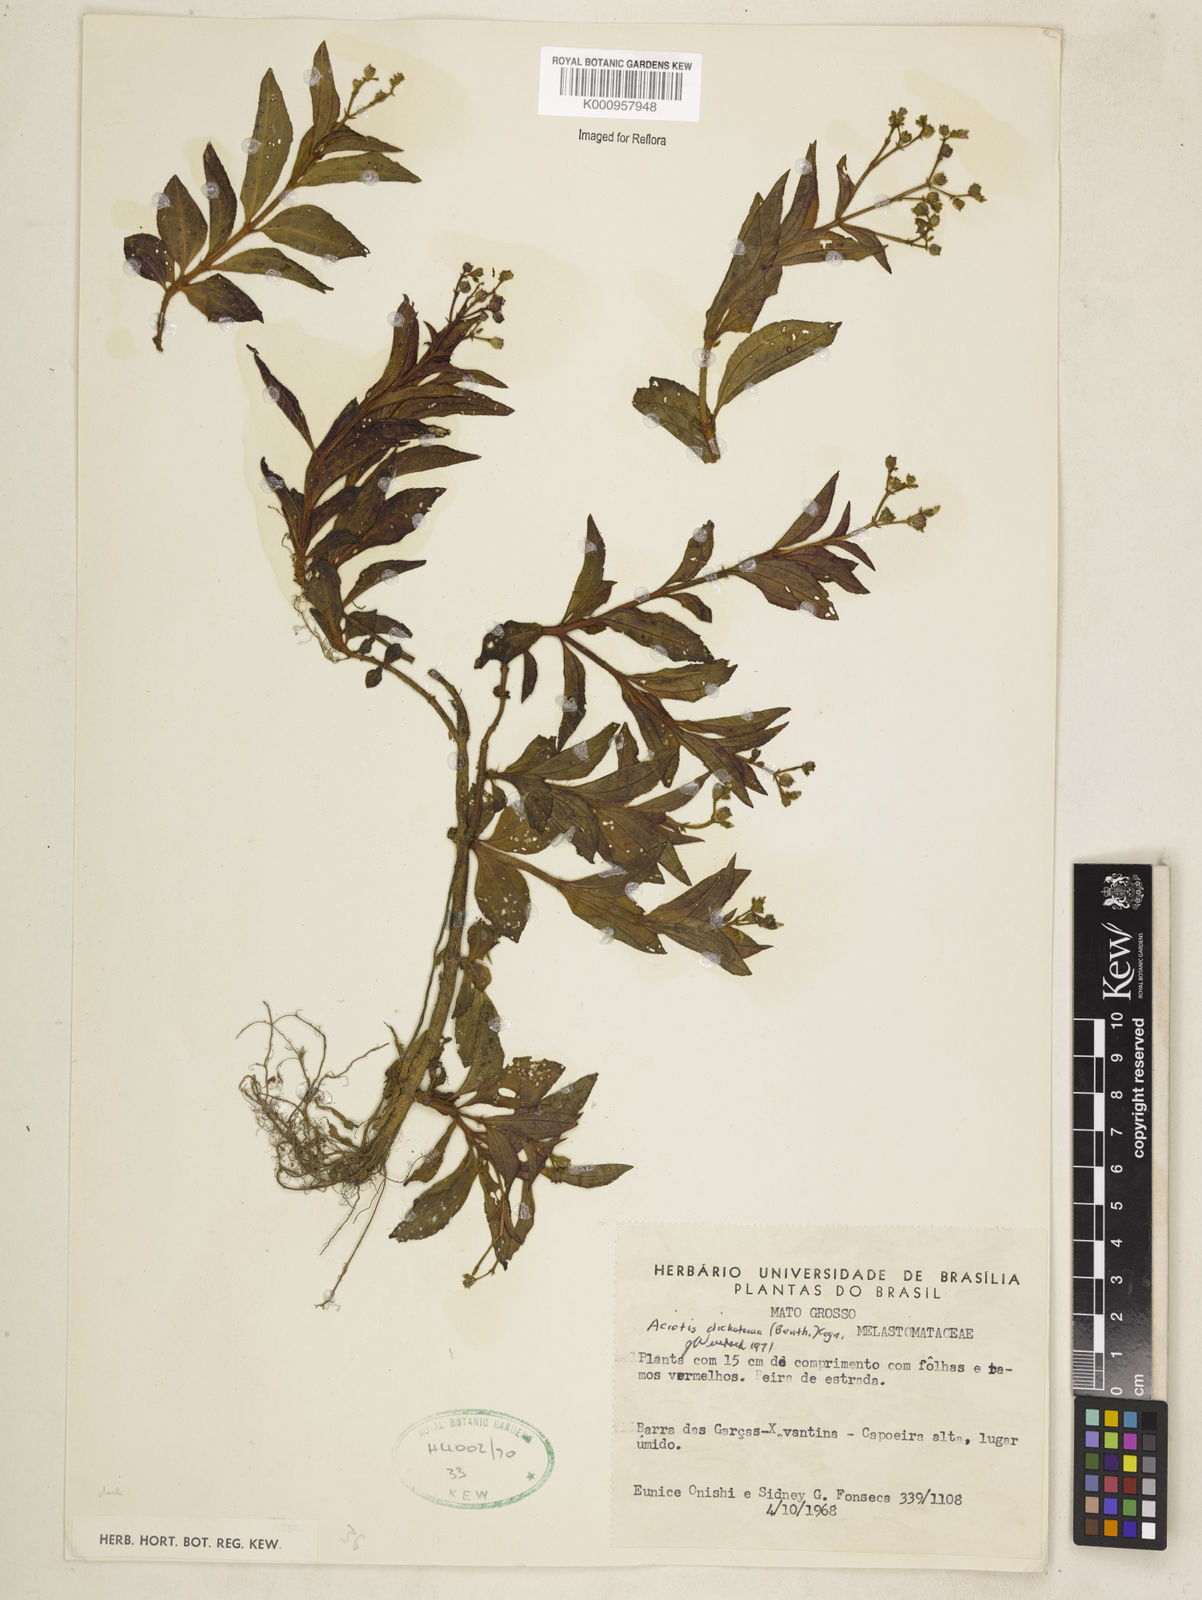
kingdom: Plantae
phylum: Tracheophyta
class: Magnoliopsida
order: Myrtales
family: Melastomataceae
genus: Aciotis
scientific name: Aciotis acuminifolia
